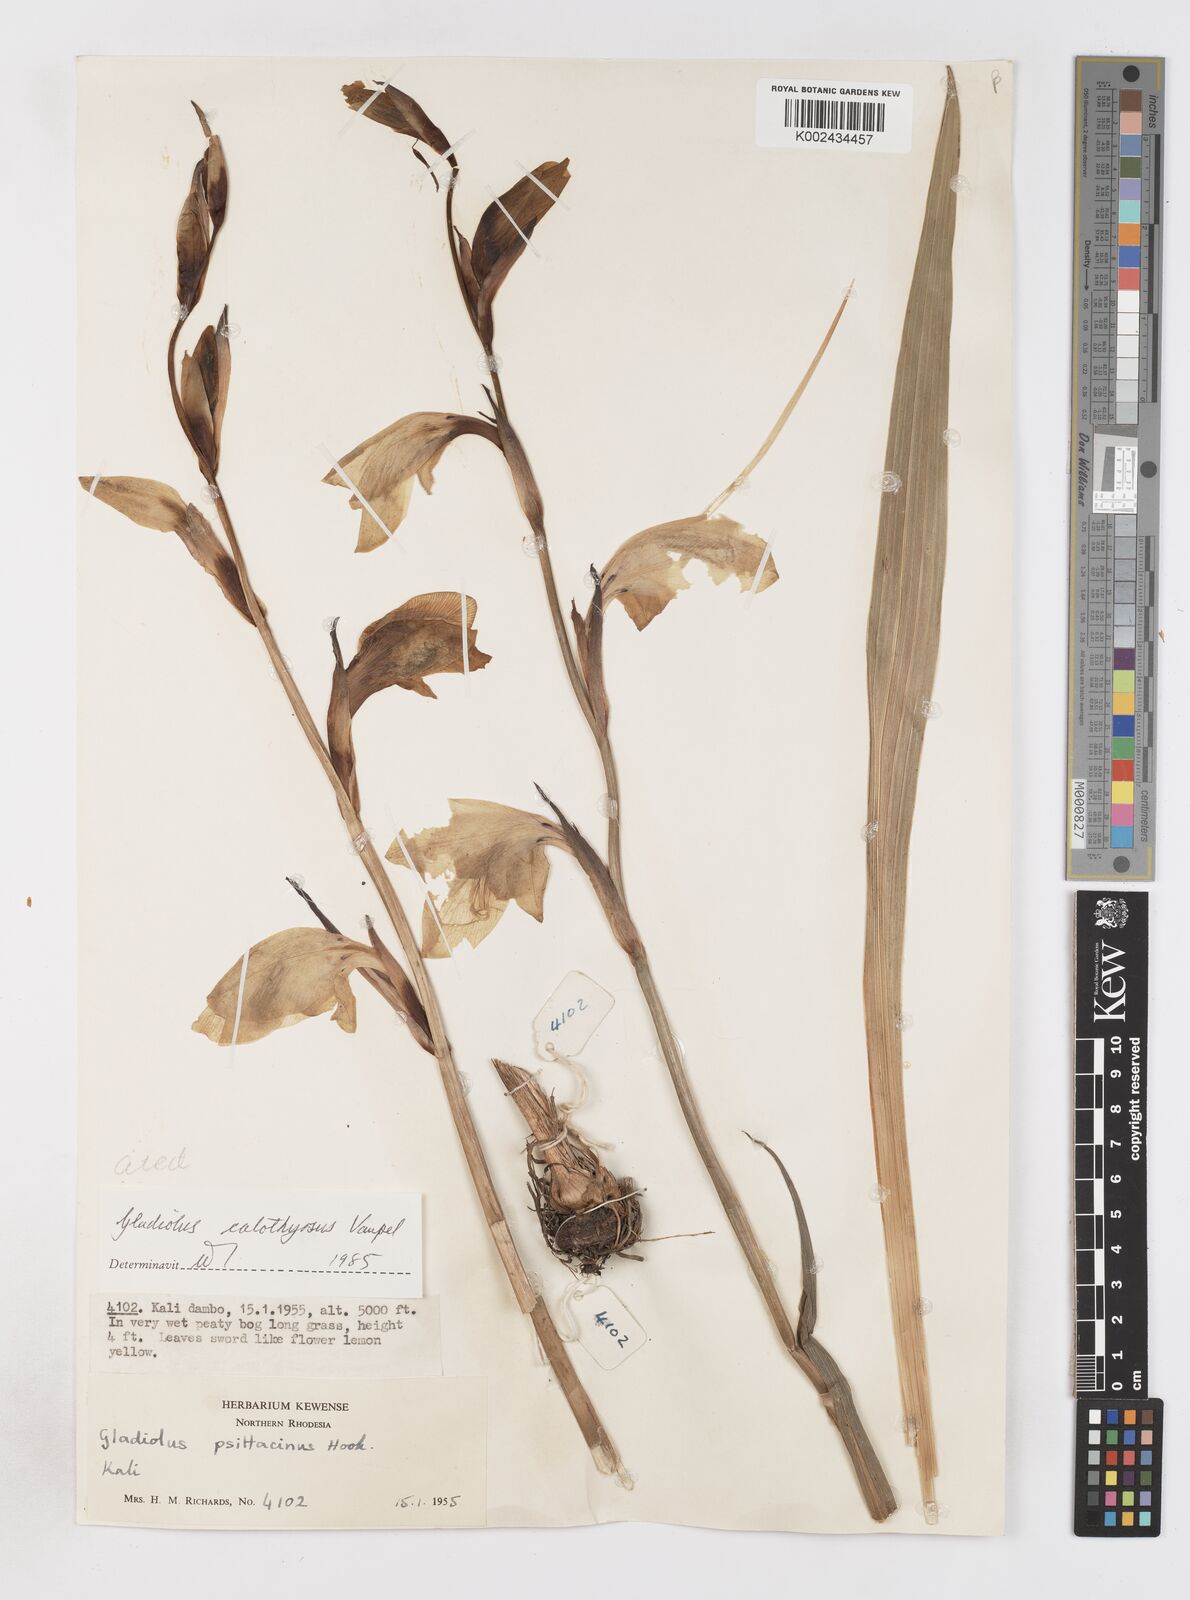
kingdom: Plantae
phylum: Tracheophyta
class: Liliopsida
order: Asparagales
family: Iridaceae
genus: Gladiolus
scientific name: Gladiolus dalenii
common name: Cornflag
